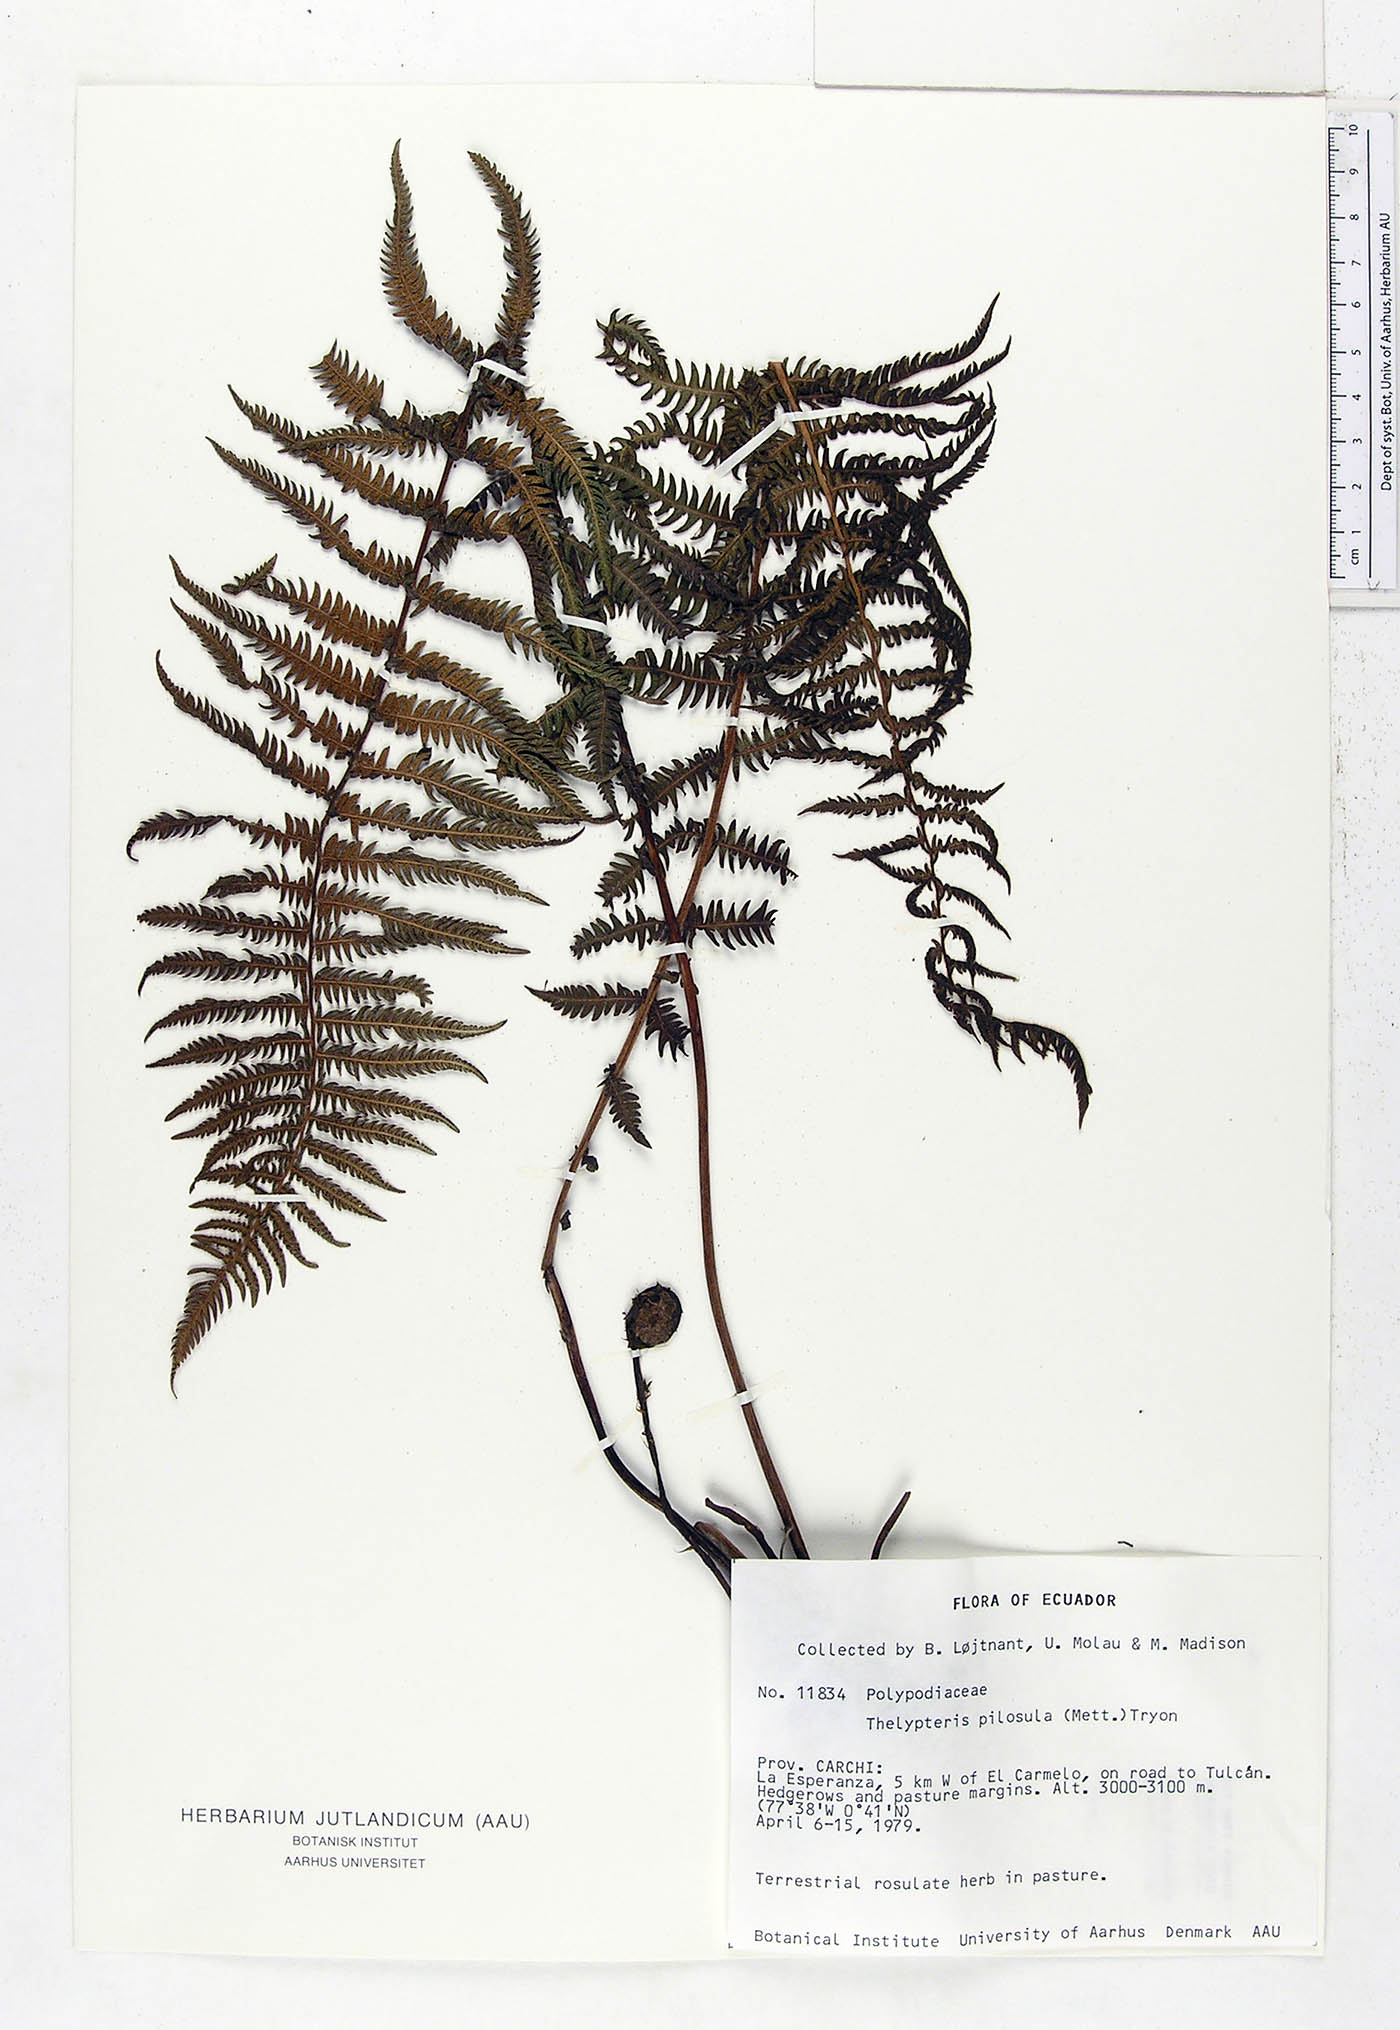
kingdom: Plantae
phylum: Tracheophyta
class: Polypodiopsida
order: Polypodiales
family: Thelypteridaceae
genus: Amauropelta
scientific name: Amauropelta pilosula
